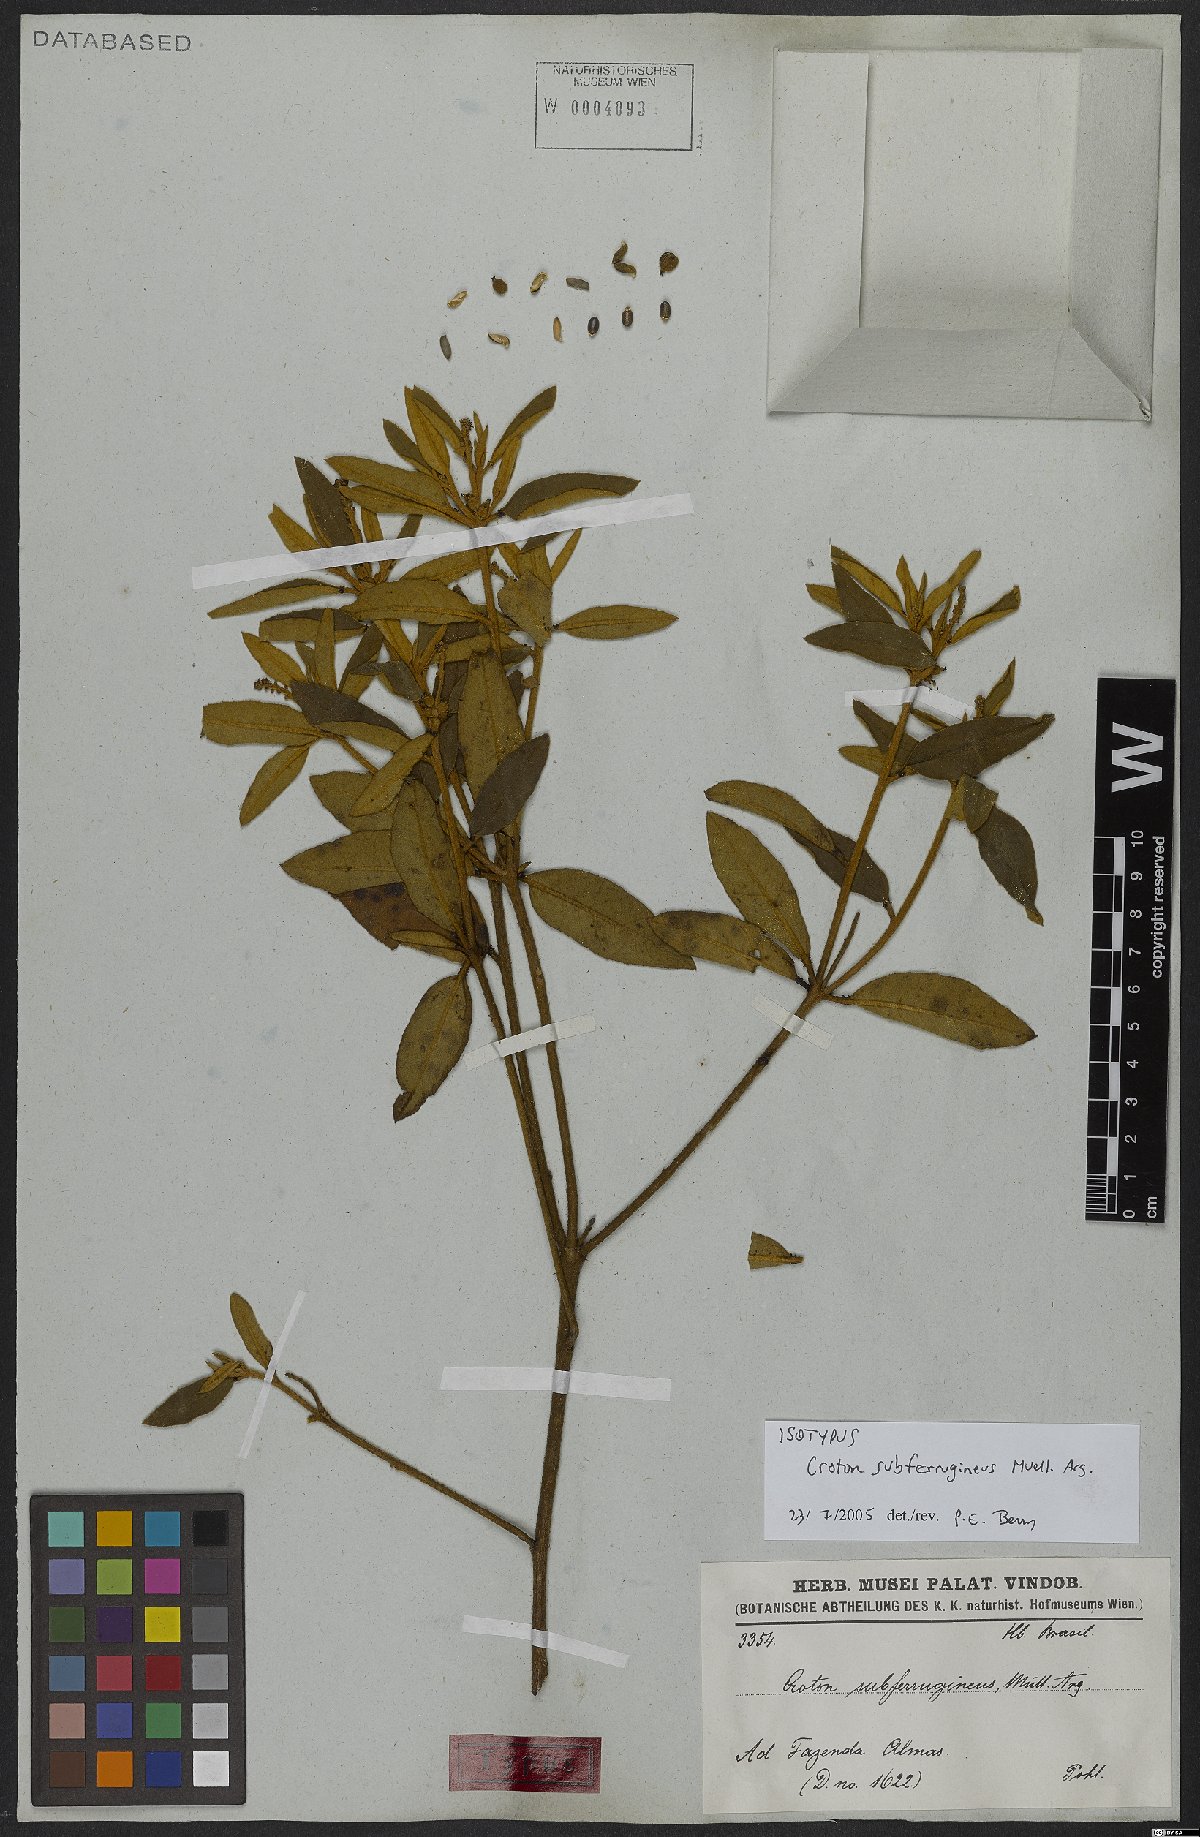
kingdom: Plantae
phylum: Tracheophyta
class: Magnoliopsida
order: Malpighiales
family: Euphorbiaceae
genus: Croton
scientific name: Croton subferrugineus
